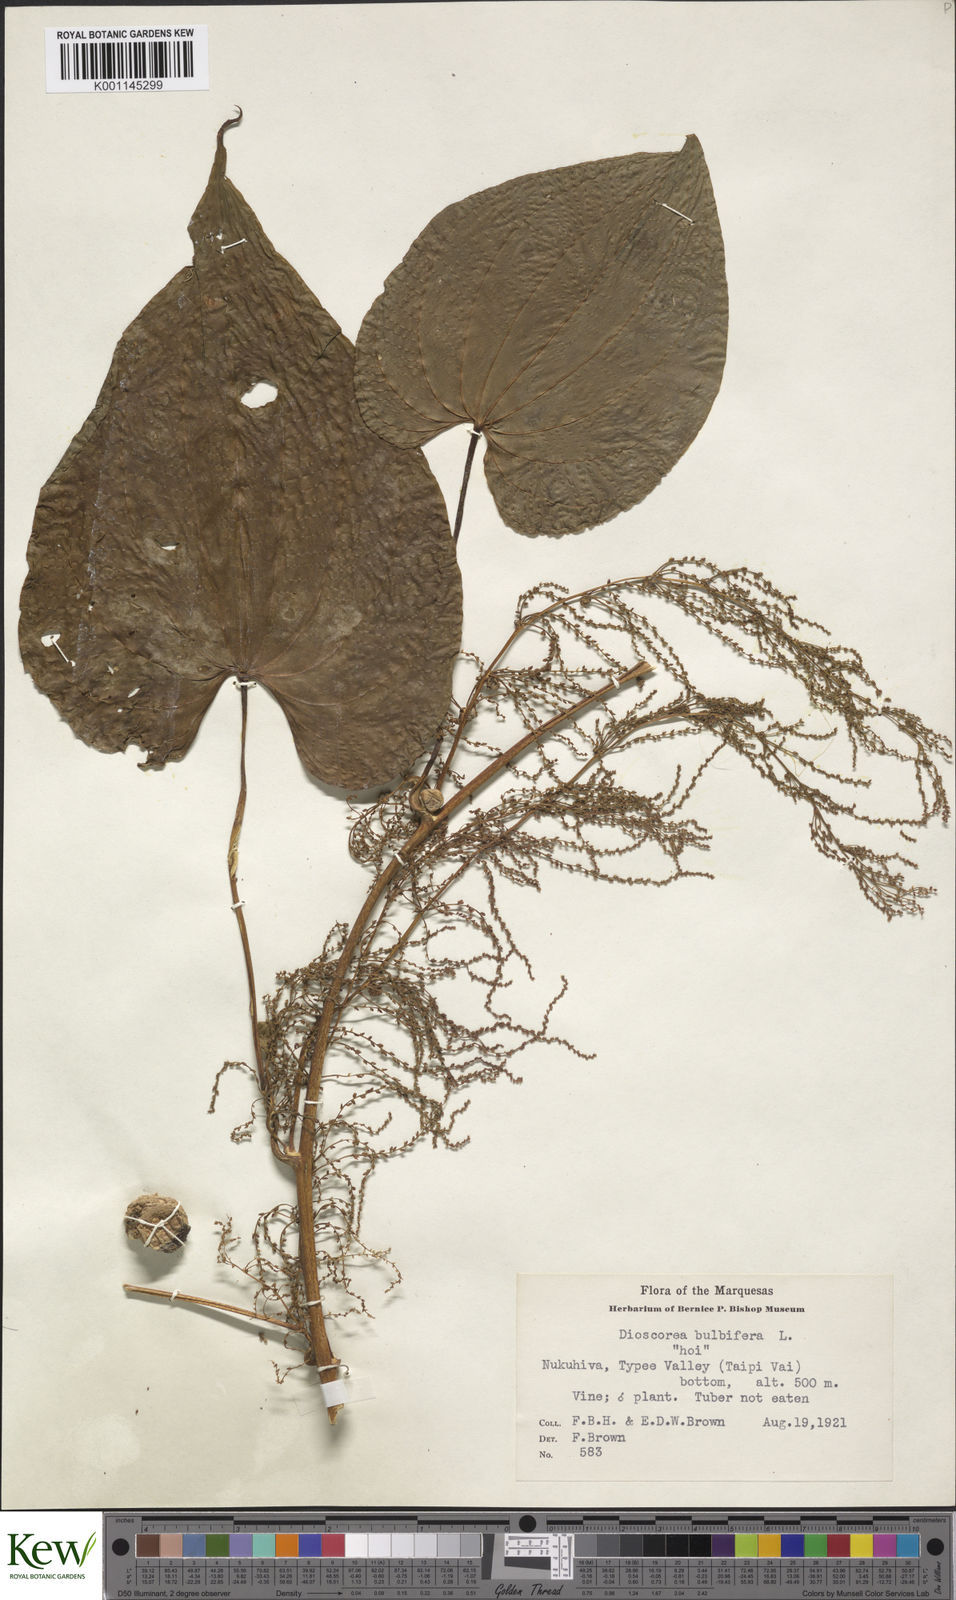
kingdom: Plantae
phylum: Tracheophyta
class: Liliopsida
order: Dioscoreales
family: Dioscoreaceae
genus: Dioscorea
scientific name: Dioscorea bulbifera
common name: Air yam
